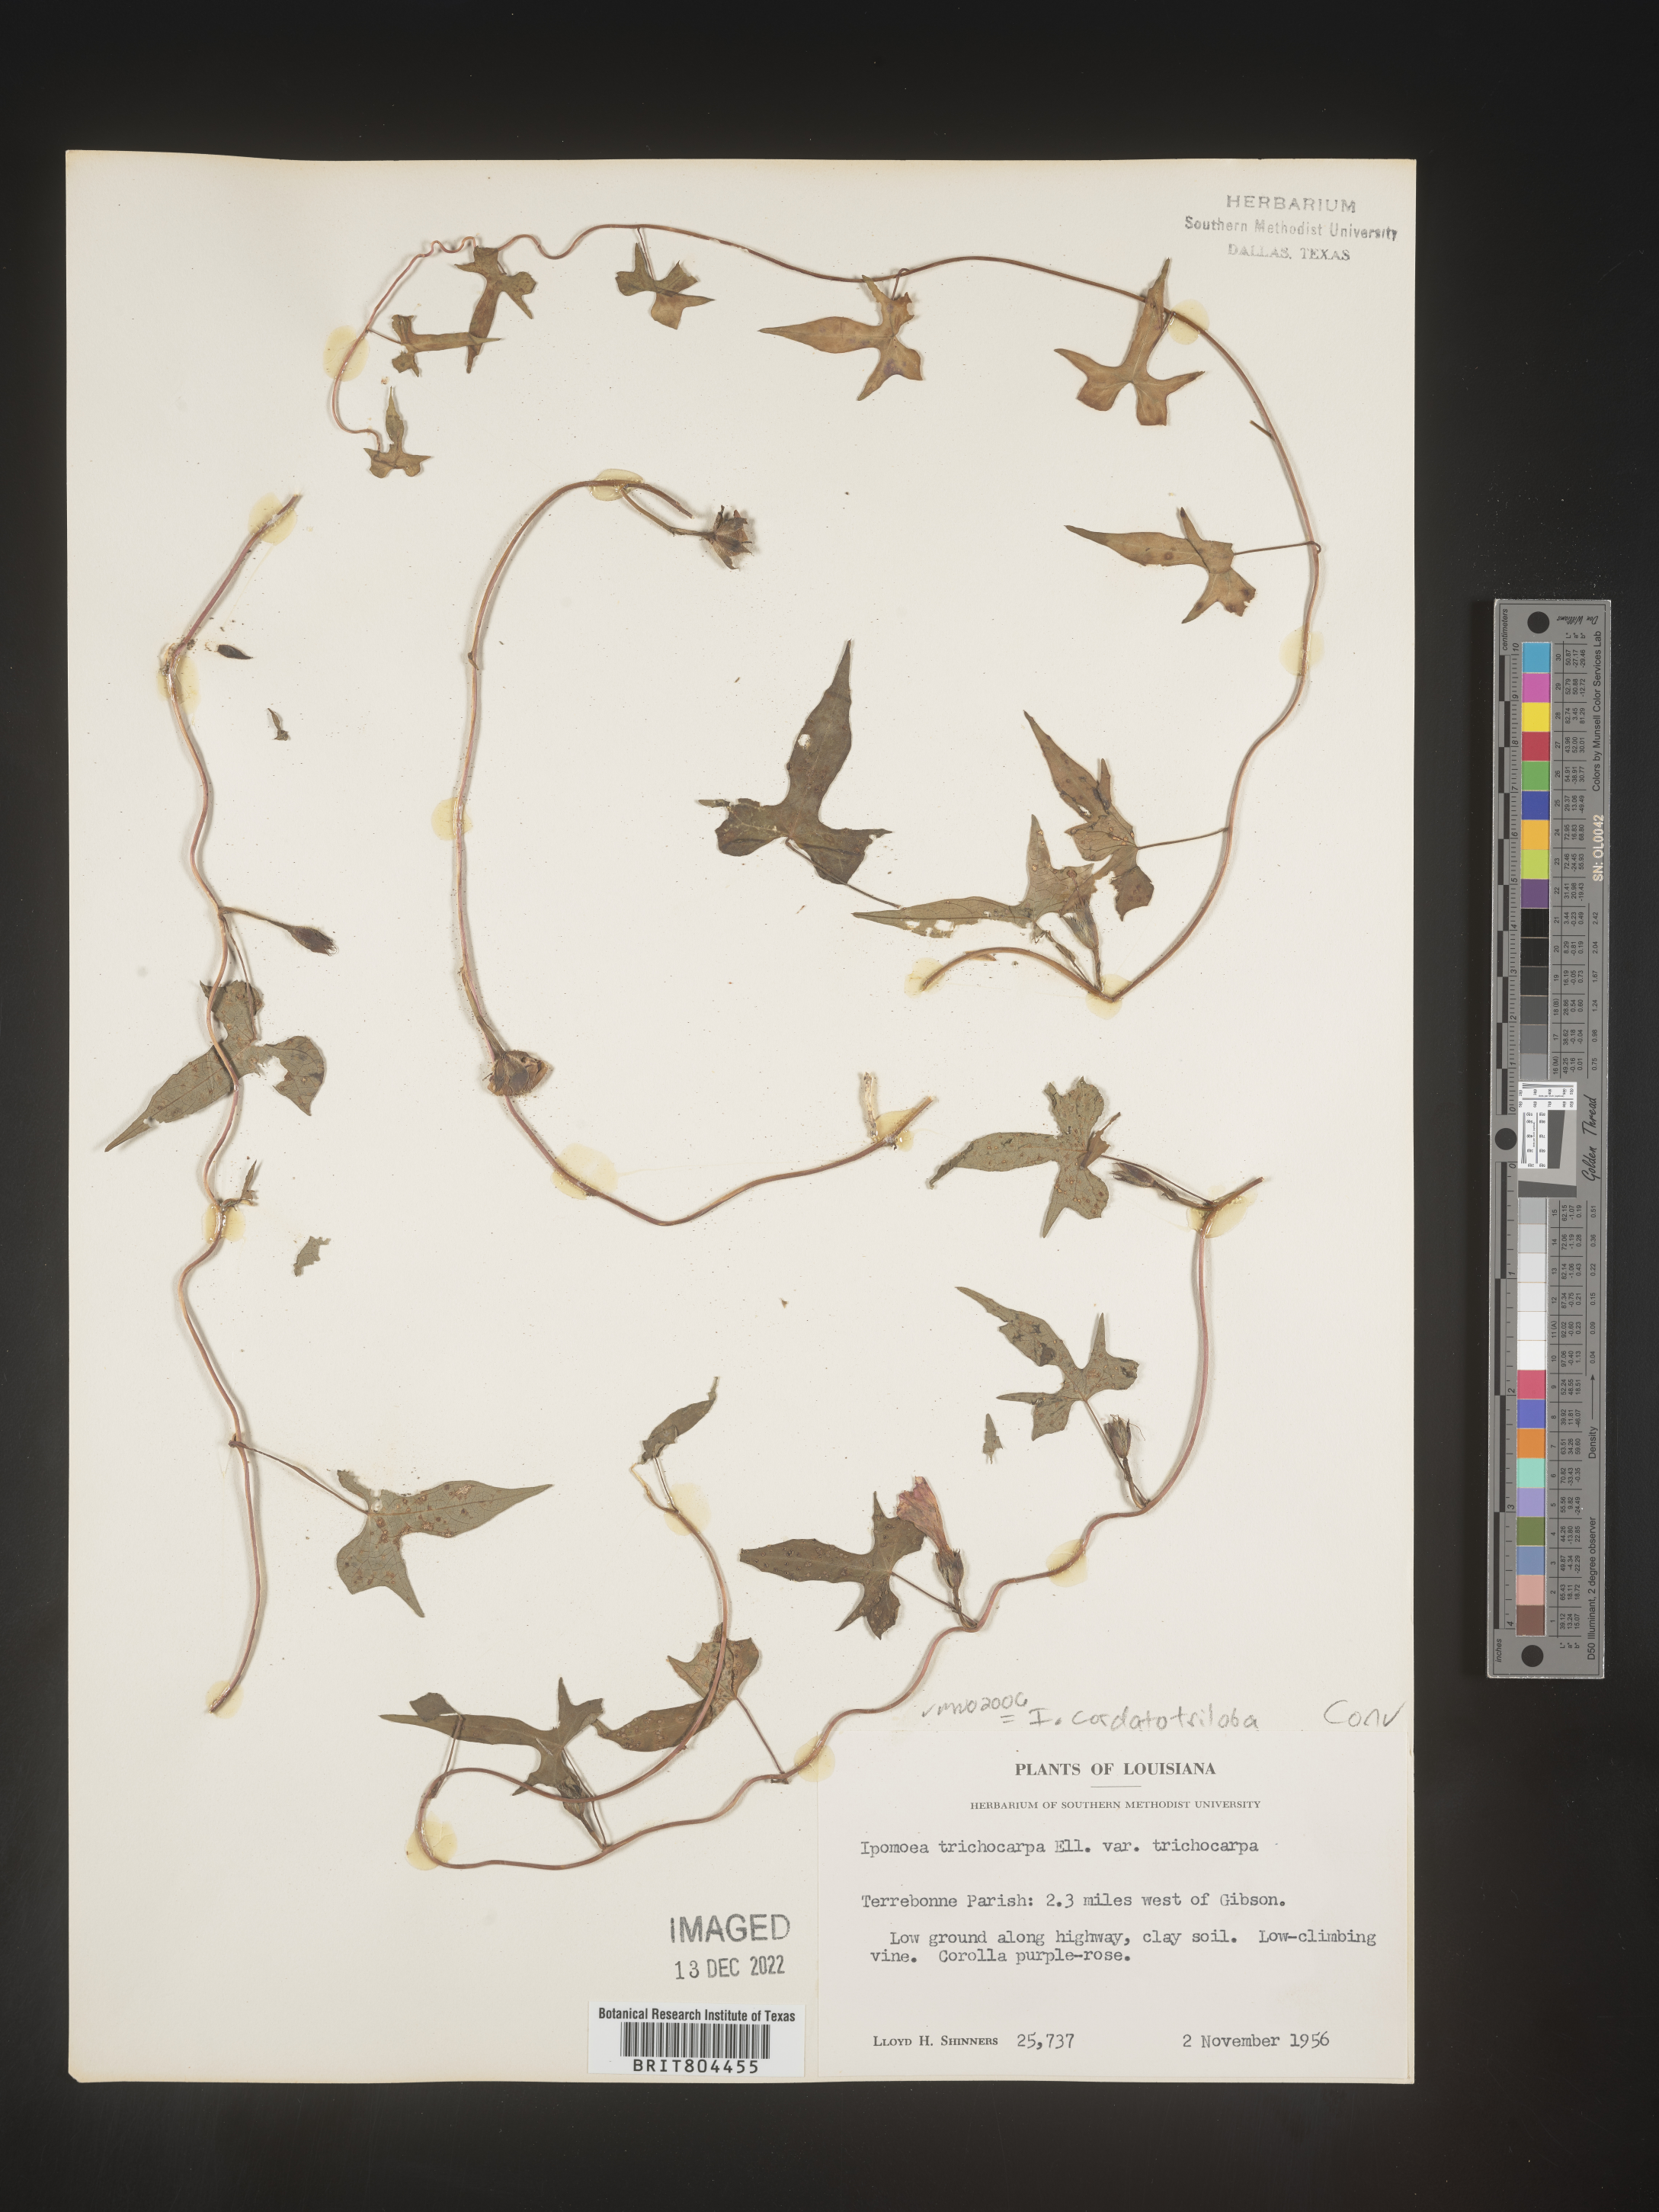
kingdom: Plantae
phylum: Tracheophyta
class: Magnoliopsida
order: Solanales
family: Convolvulaceae
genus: Ipomoea
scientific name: Ipomoea cordatotriloba
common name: Cotton morning glory
